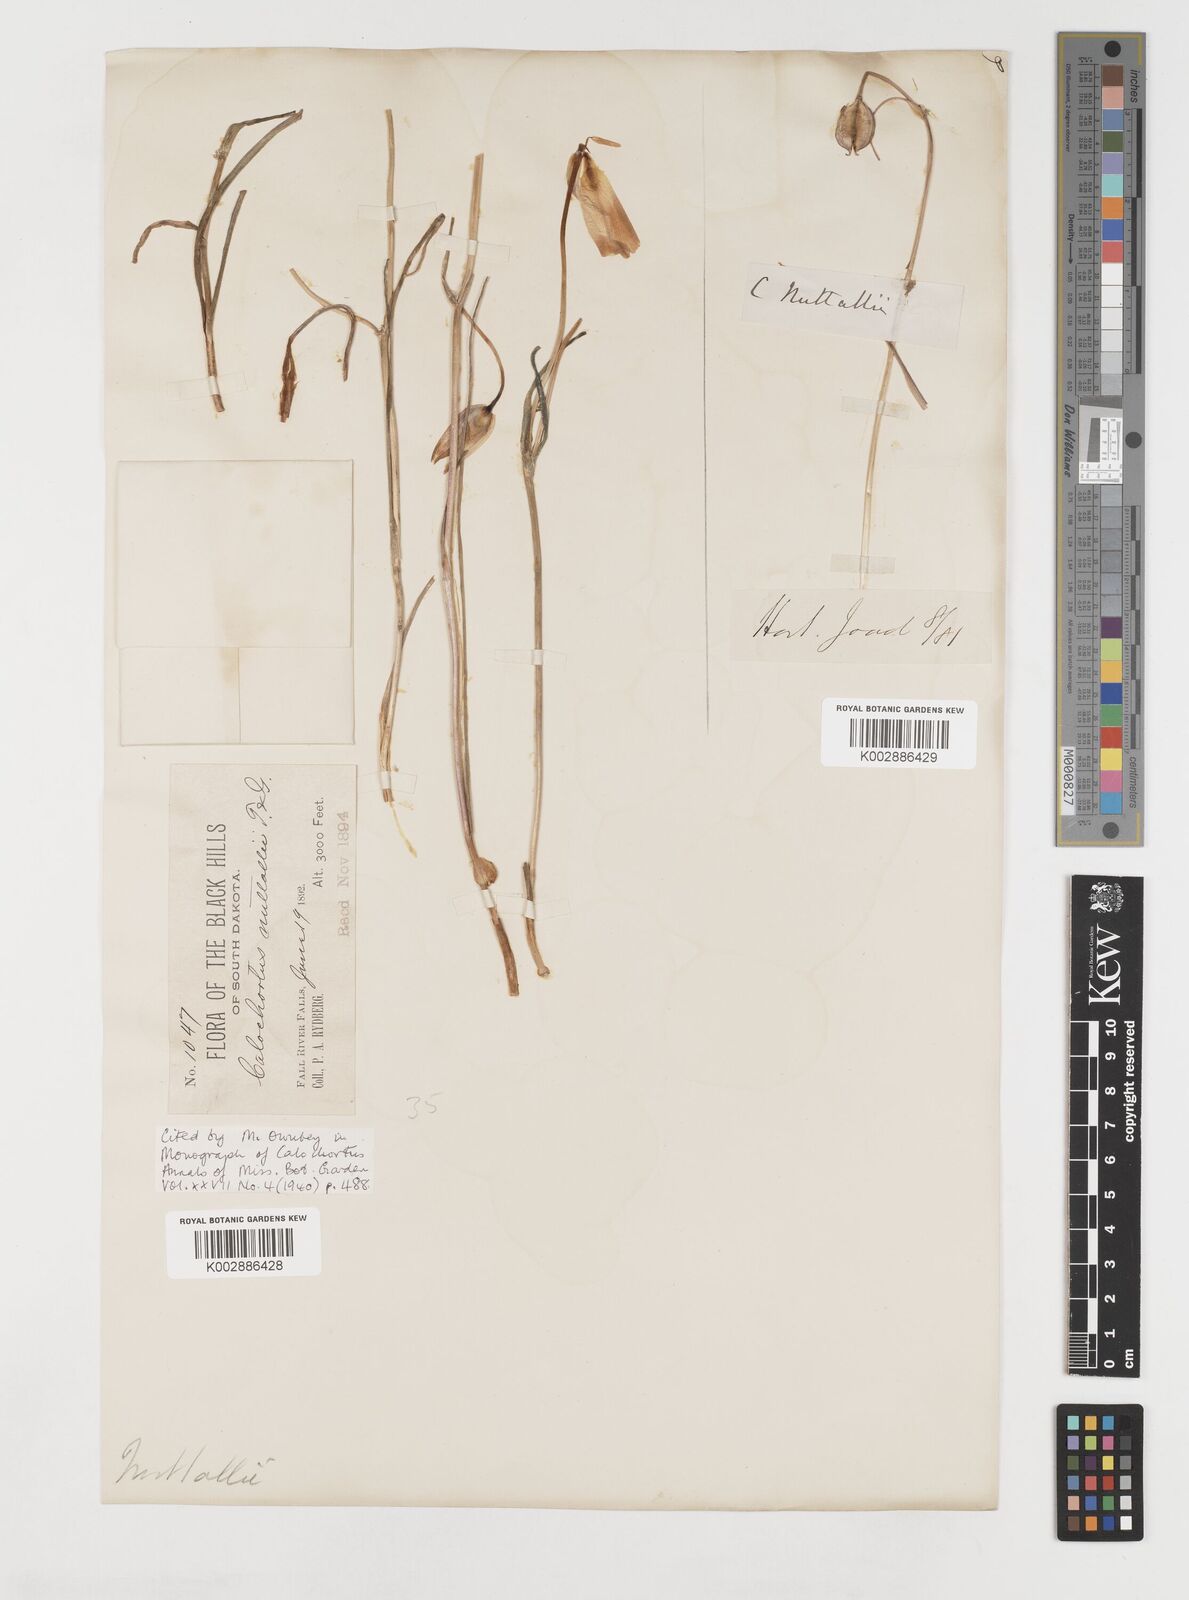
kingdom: Plantae
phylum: Tracheophyta
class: Liliopsida
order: Liliales
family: Liliaceae
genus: Calochortus
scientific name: Calochortus nuttallii
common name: Sego-lily
